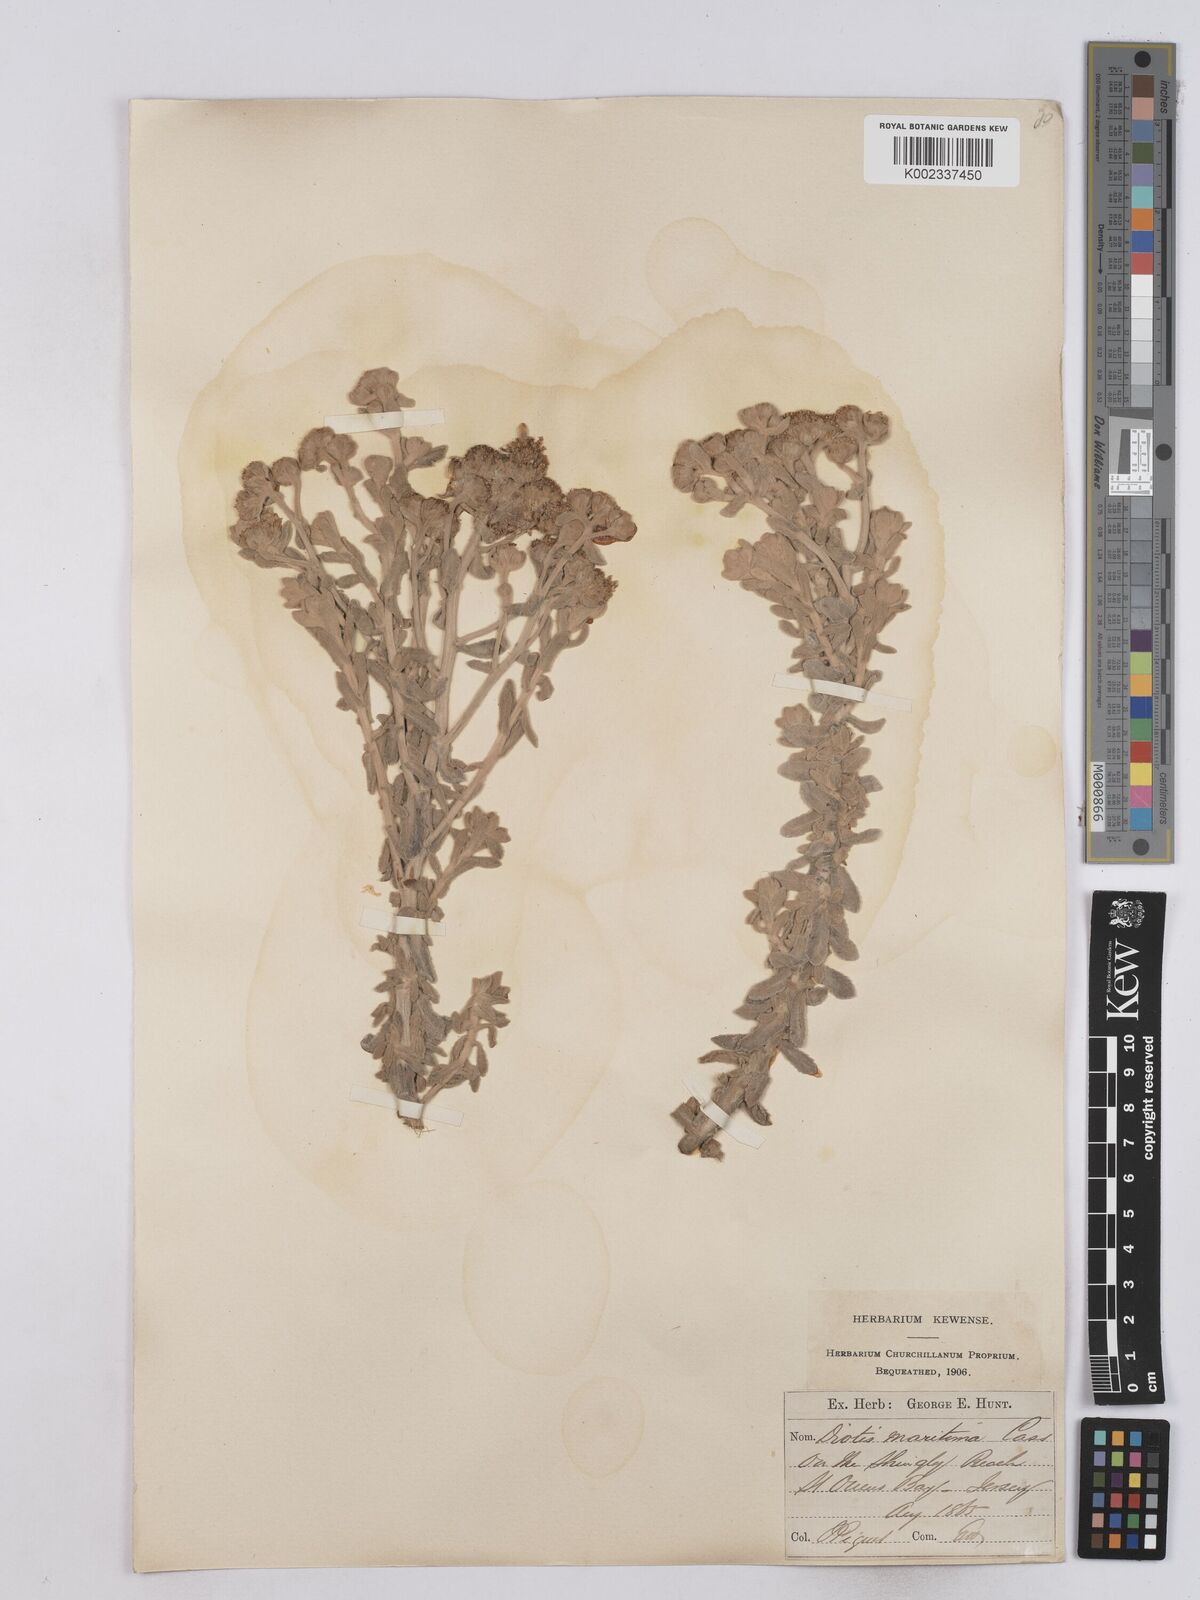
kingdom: Plantae
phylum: Tracheophyta
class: Magnoliopsida
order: Asterales
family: Asteraceae
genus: Achillea
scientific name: Achillea maritima
